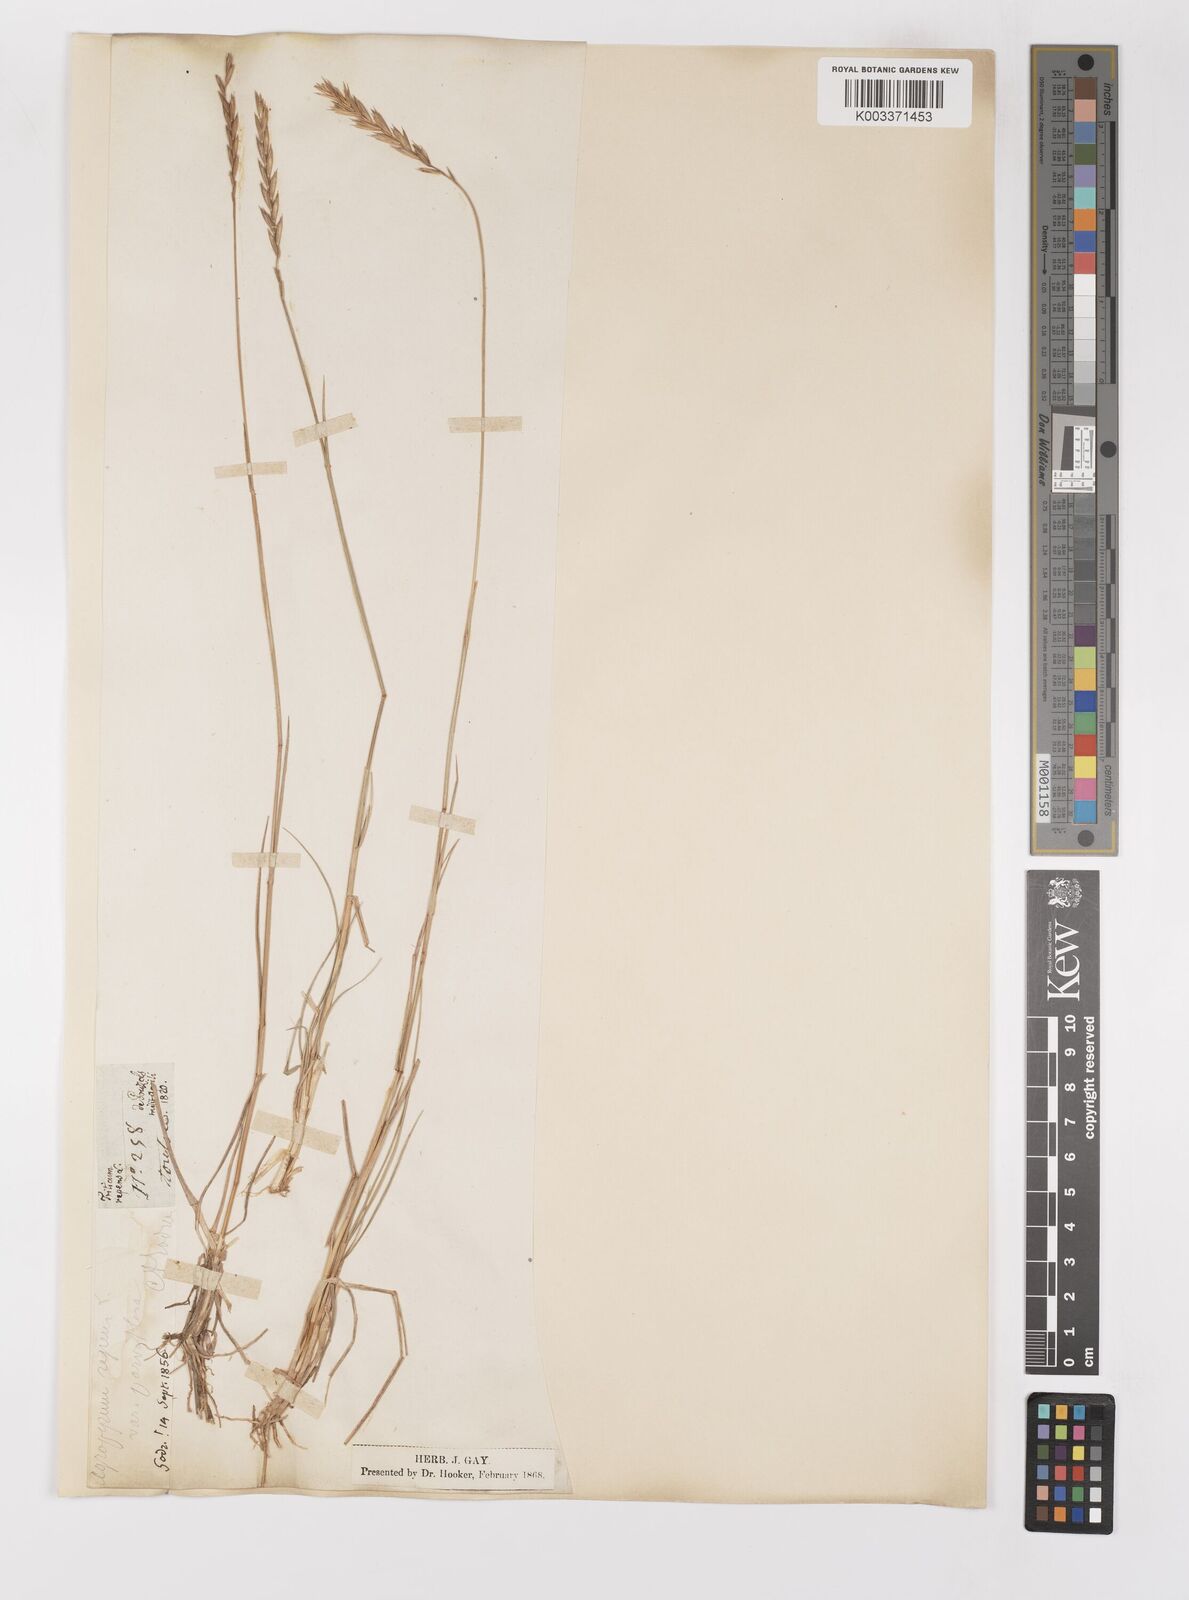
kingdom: Plantae
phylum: Tracheophyta
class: Liliopsida
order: Poales
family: Poaceae
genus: Elymus
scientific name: Elymus repens
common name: Quackgrass
